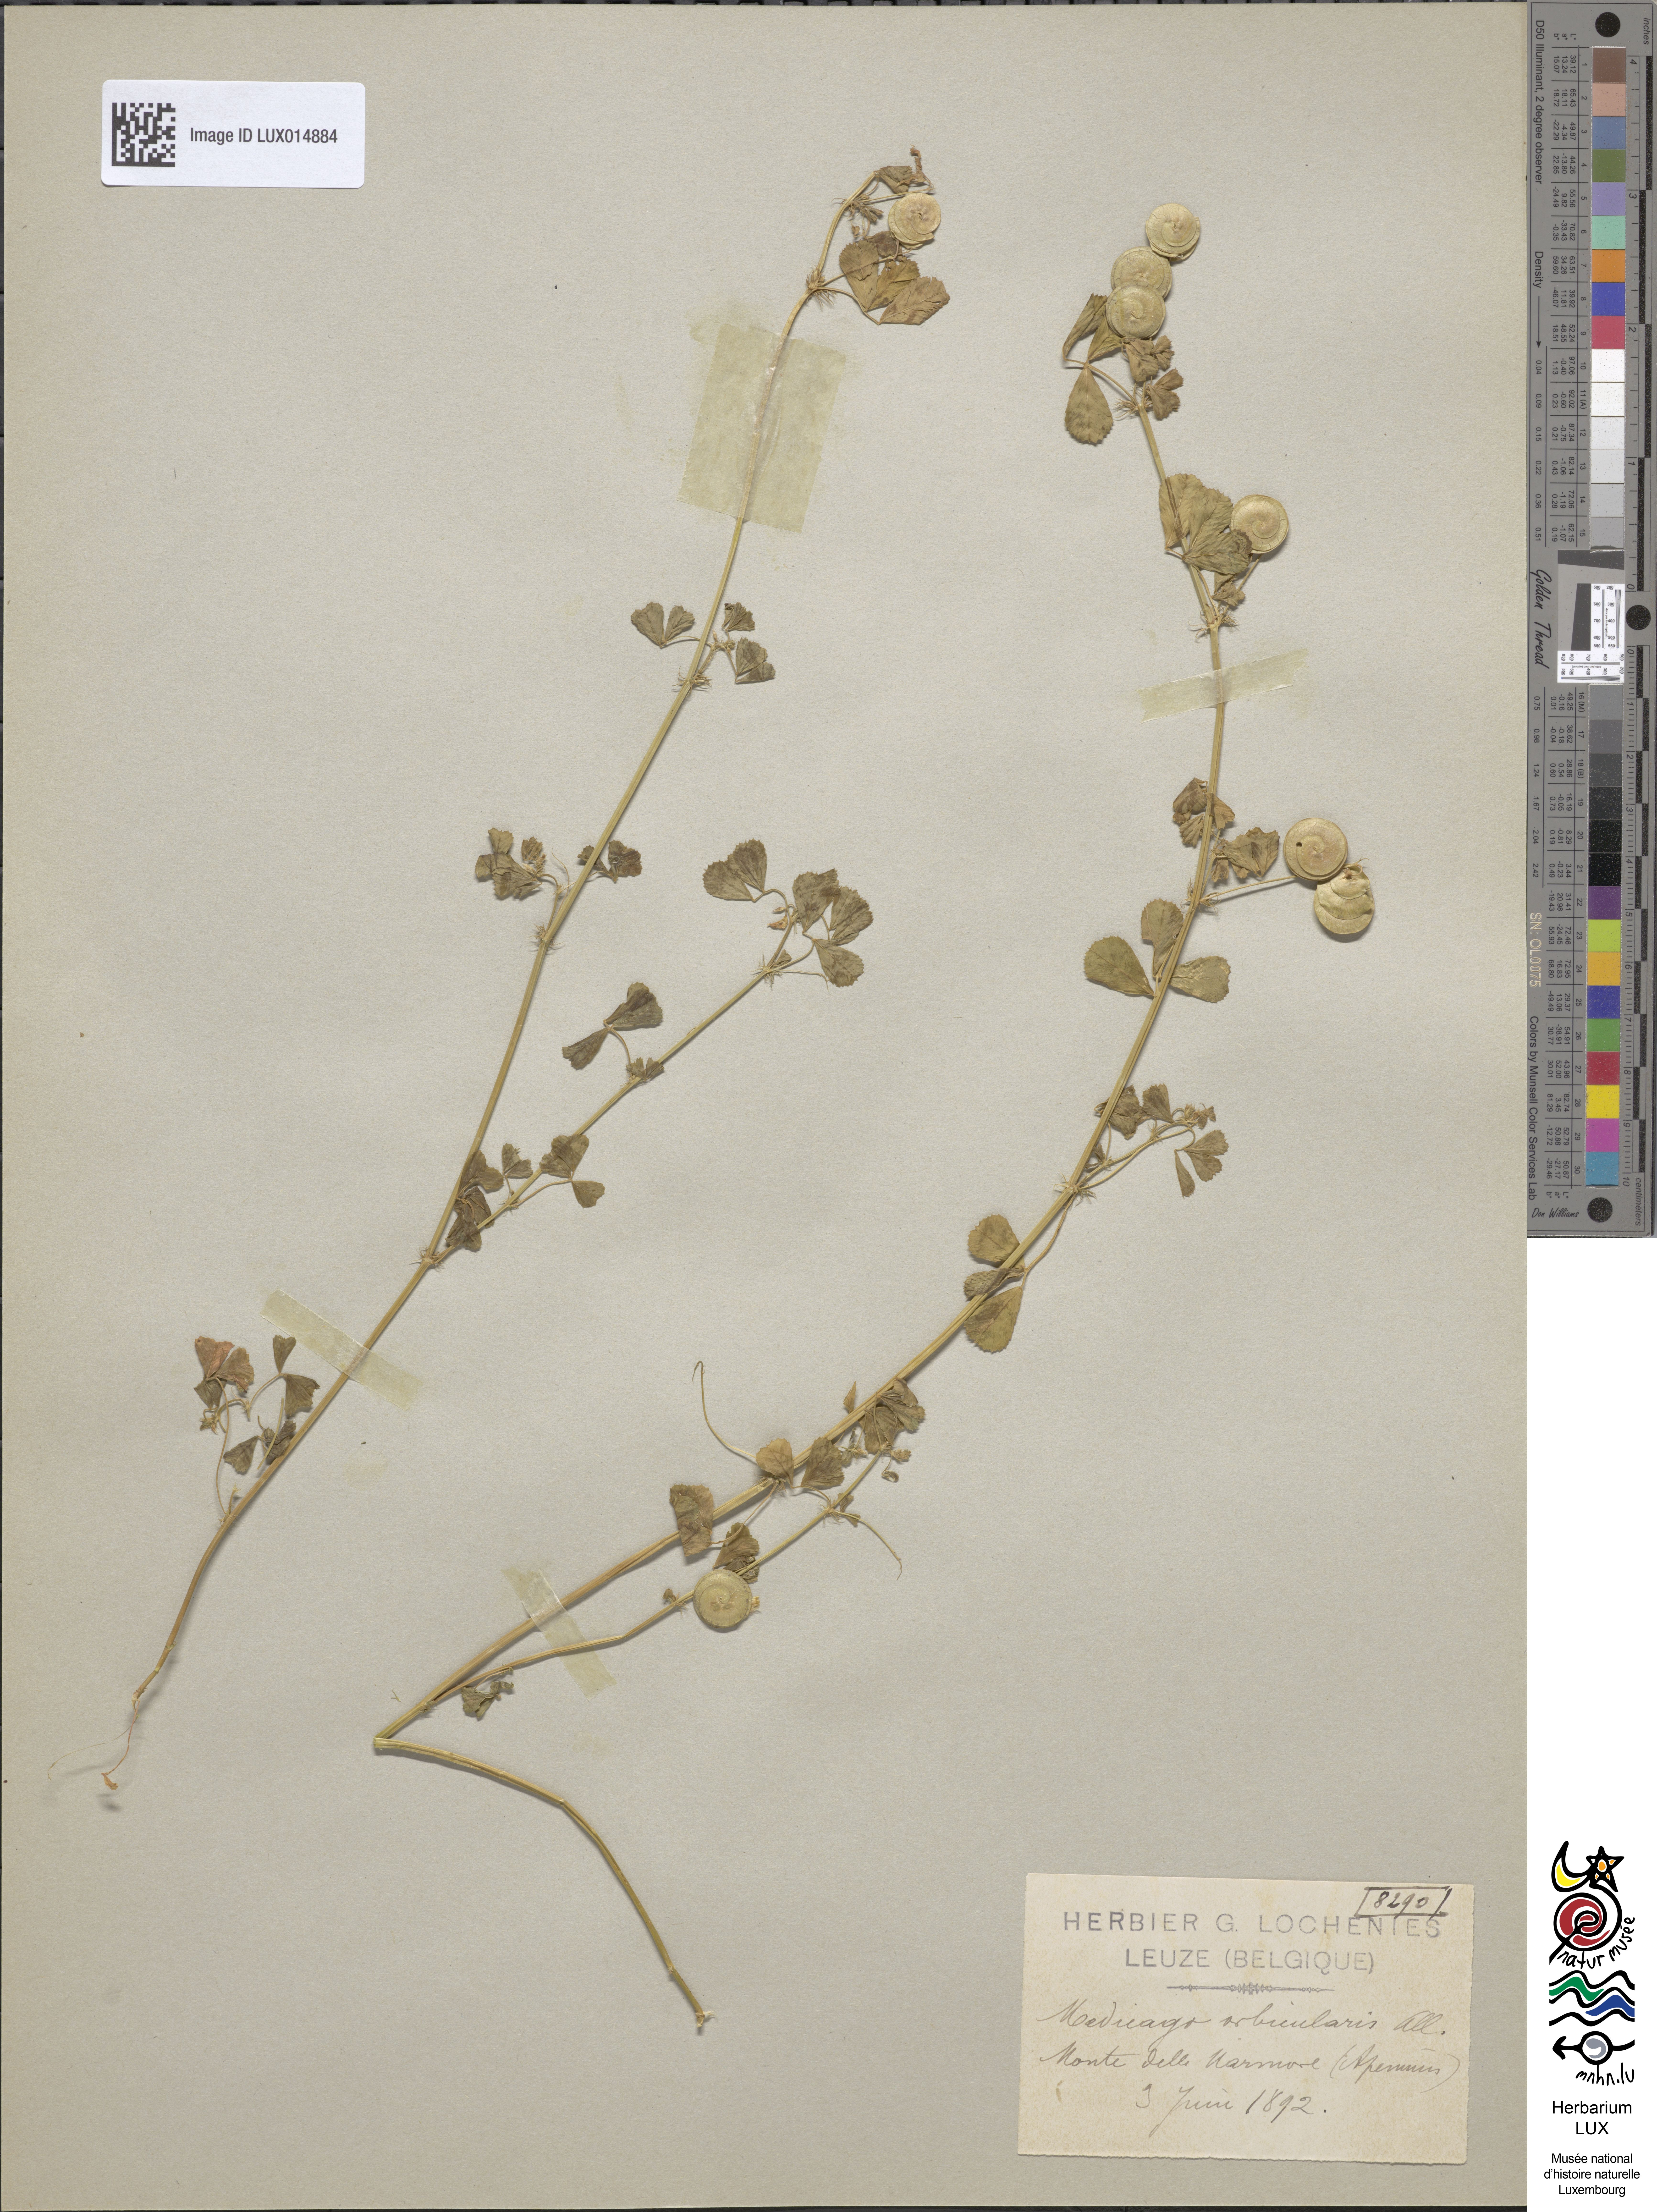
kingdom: Plantae
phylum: Tracheophyta
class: Magnoliopsida
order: Fabales
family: Fabaceae
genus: Medicago
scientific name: Medicago orbicularis
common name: Button medick
